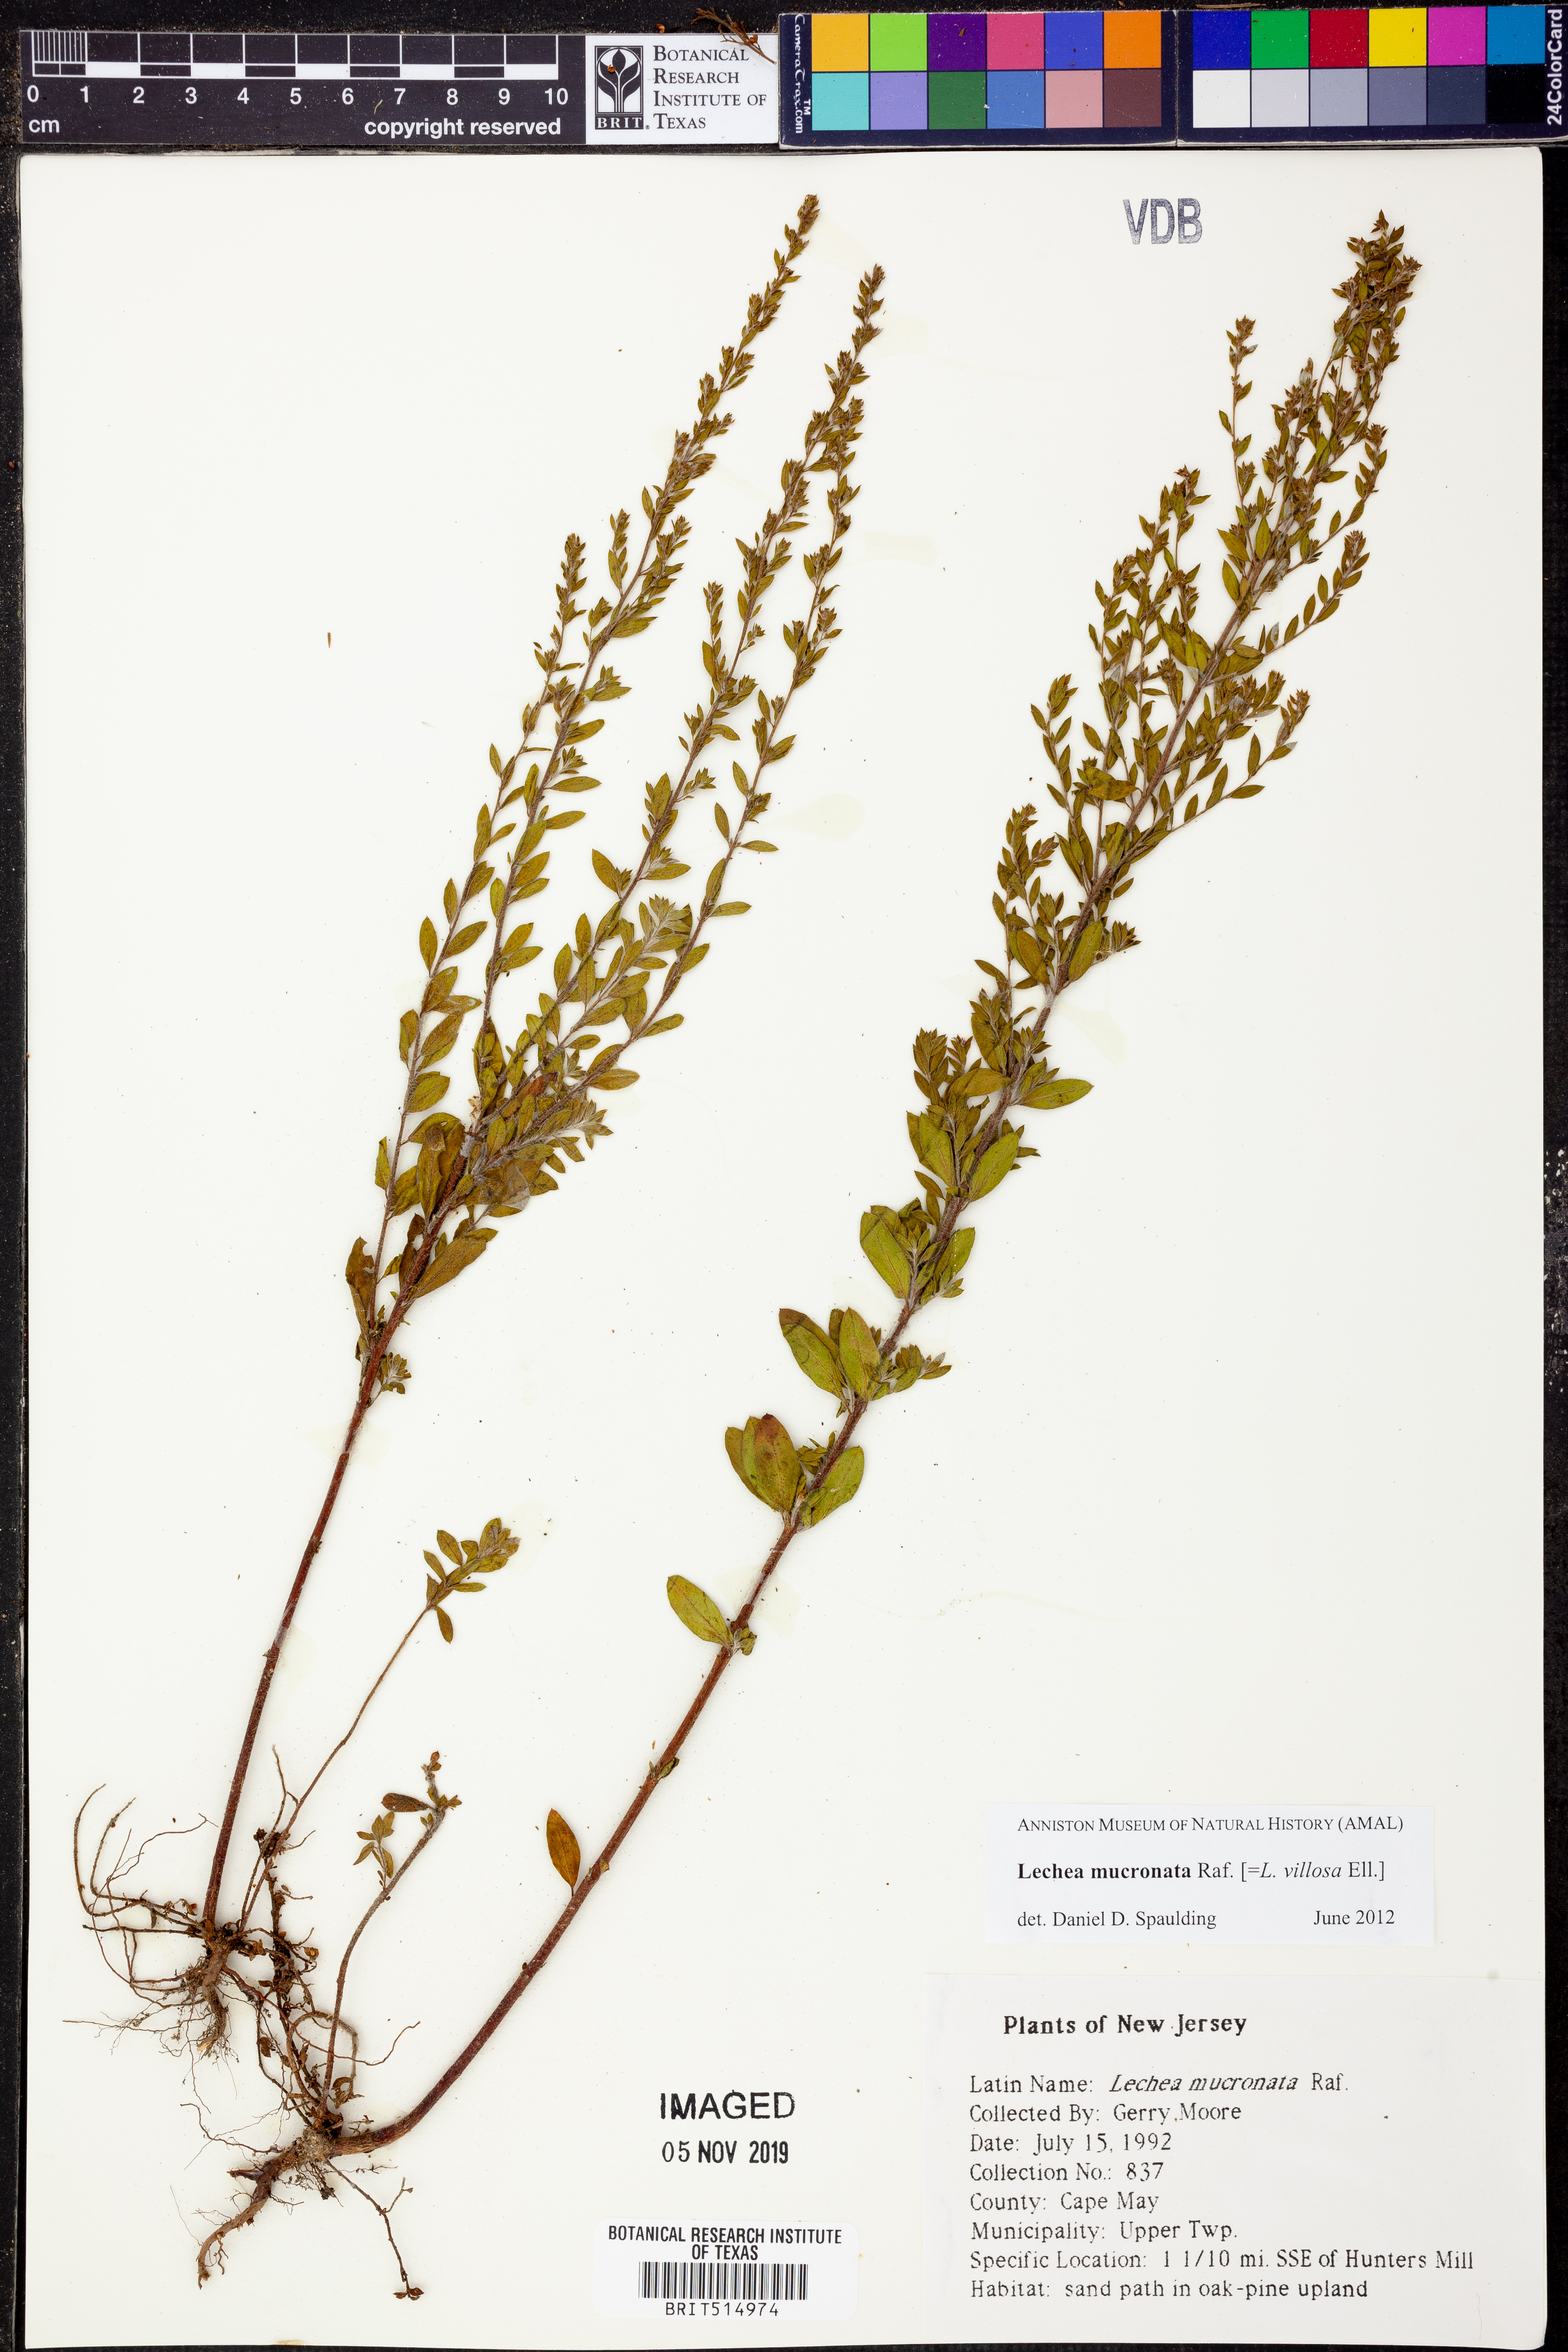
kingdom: Plantae
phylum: Tracheophyta
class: Magnoliopsida
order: Malvales
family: Cistaceae
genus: Lechea
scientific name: Lechea mucronata
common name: Hairy pinweed
